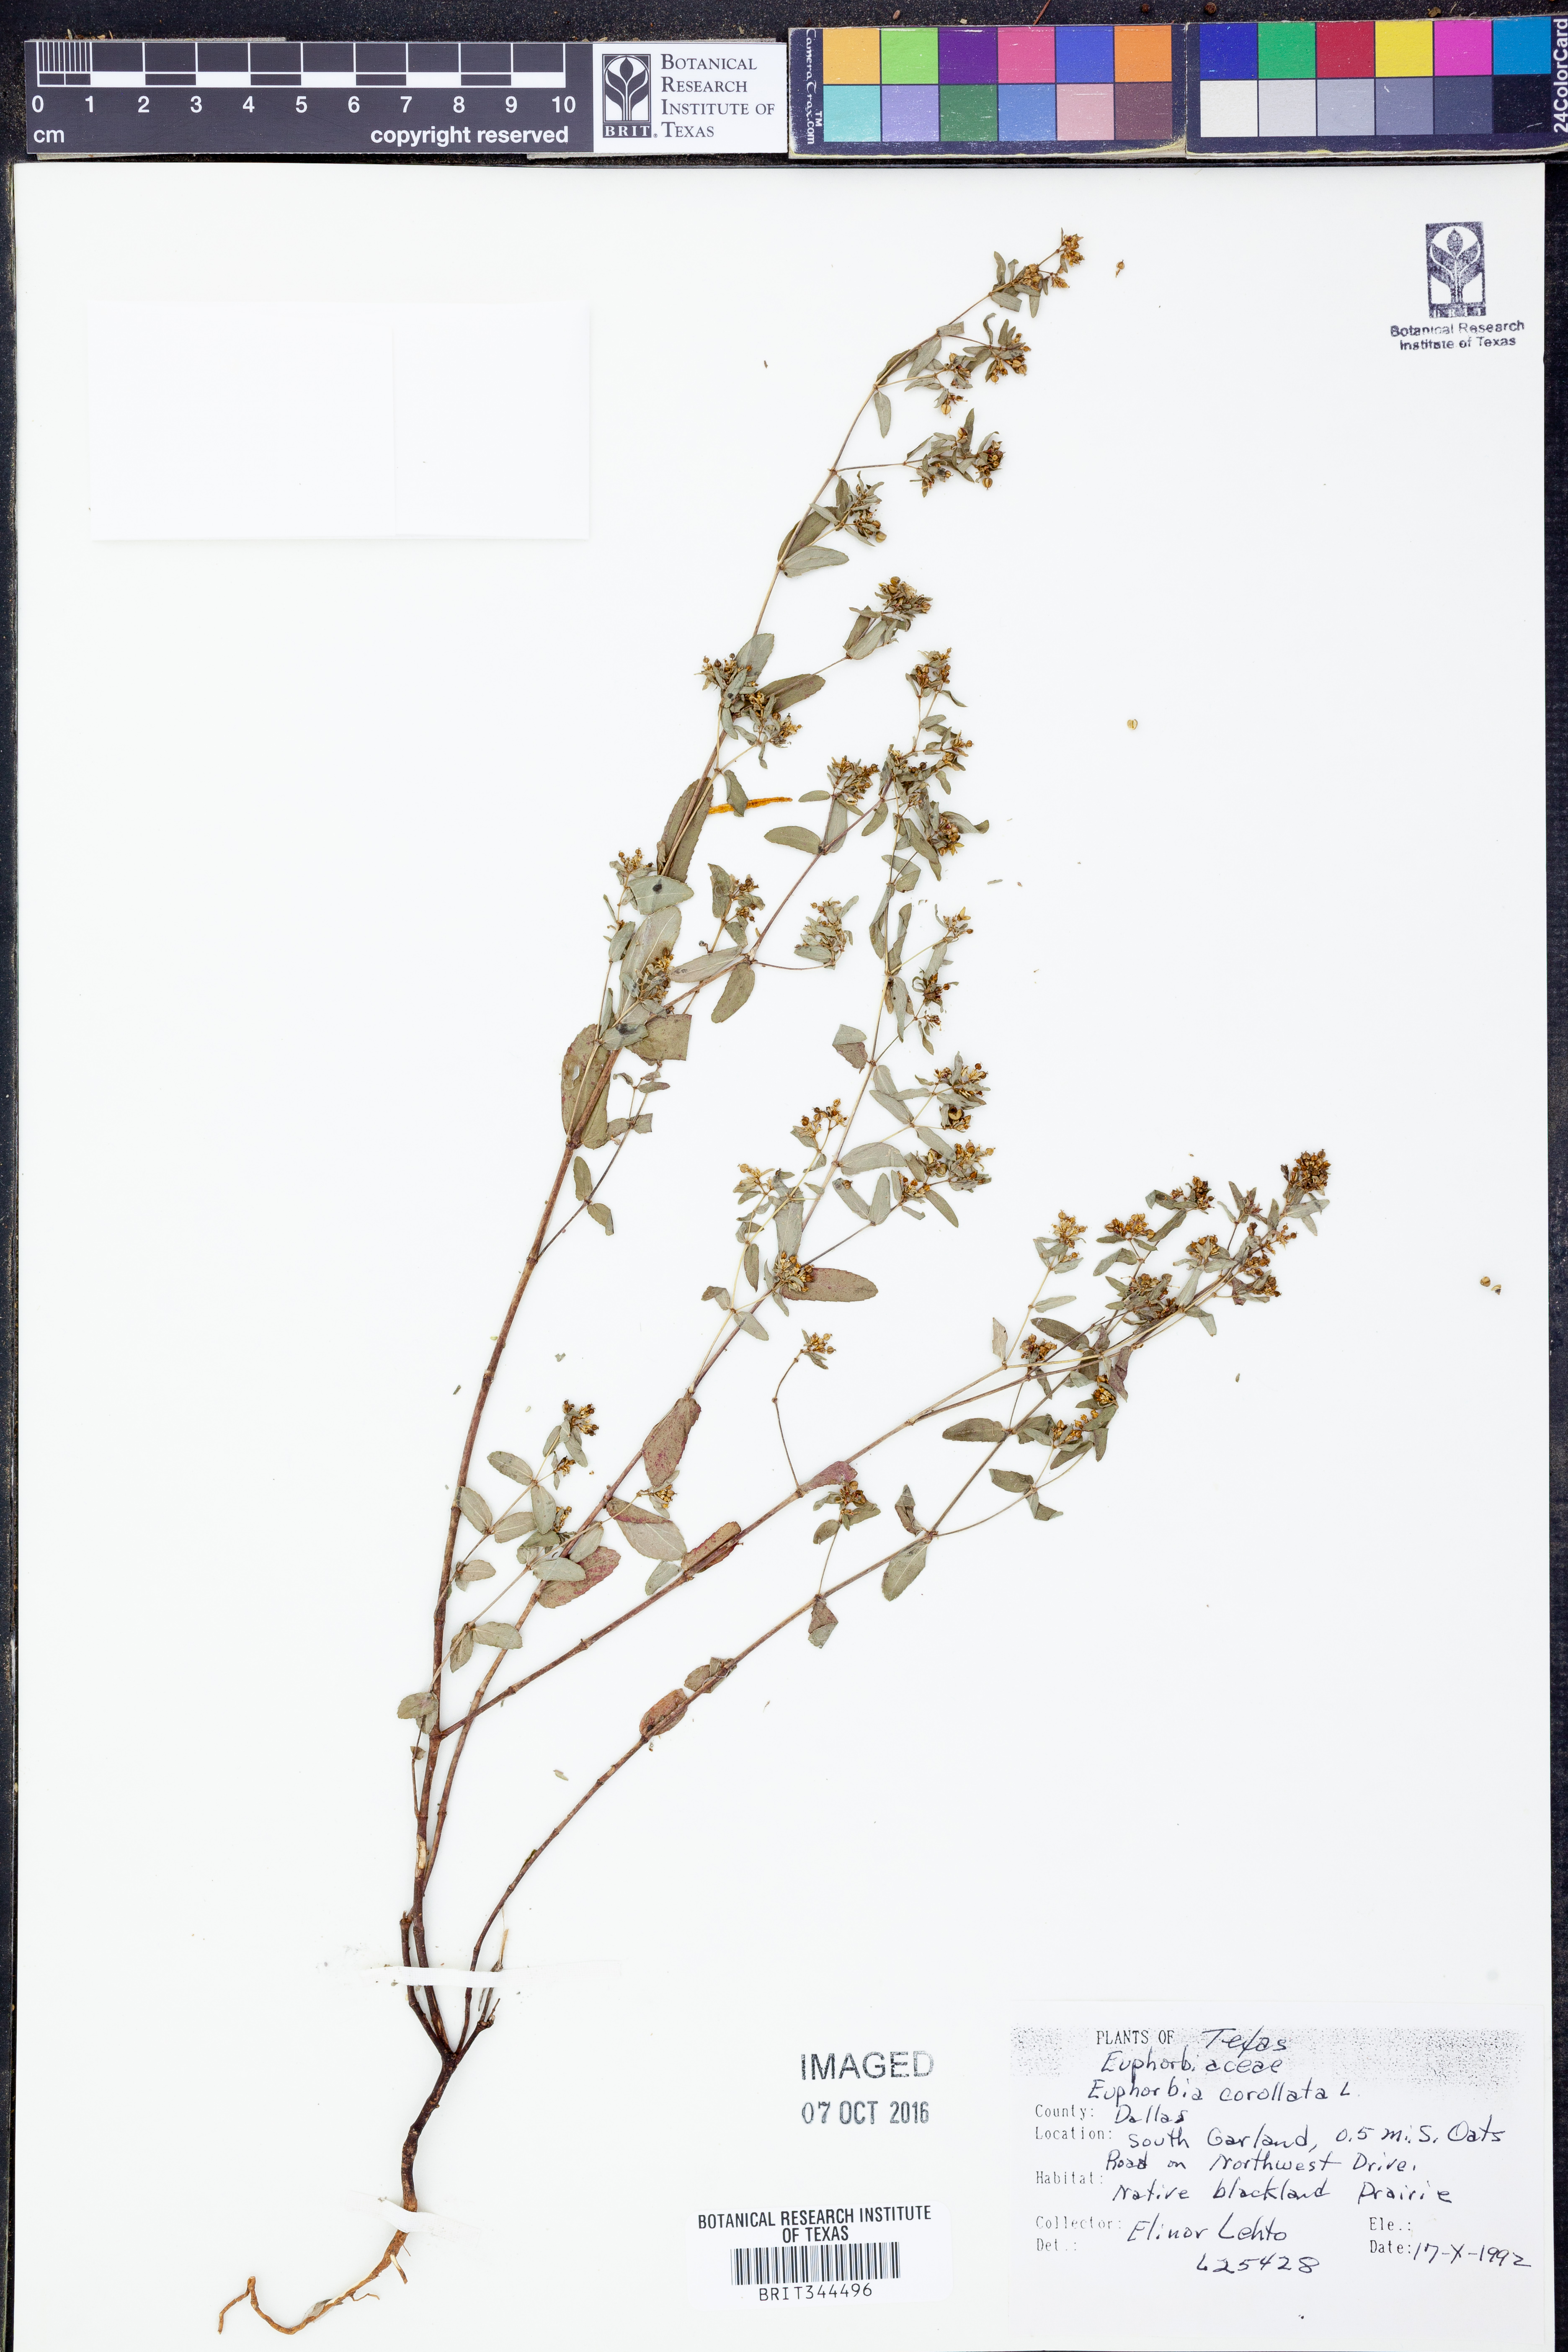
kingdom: Plantae
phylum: Tracheophyta
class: Magnoliopsida
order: Malpighiales
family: Euphorbiaceae
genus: Euphorbia
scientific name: Euphorbia corollata
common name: Flowering spurge
